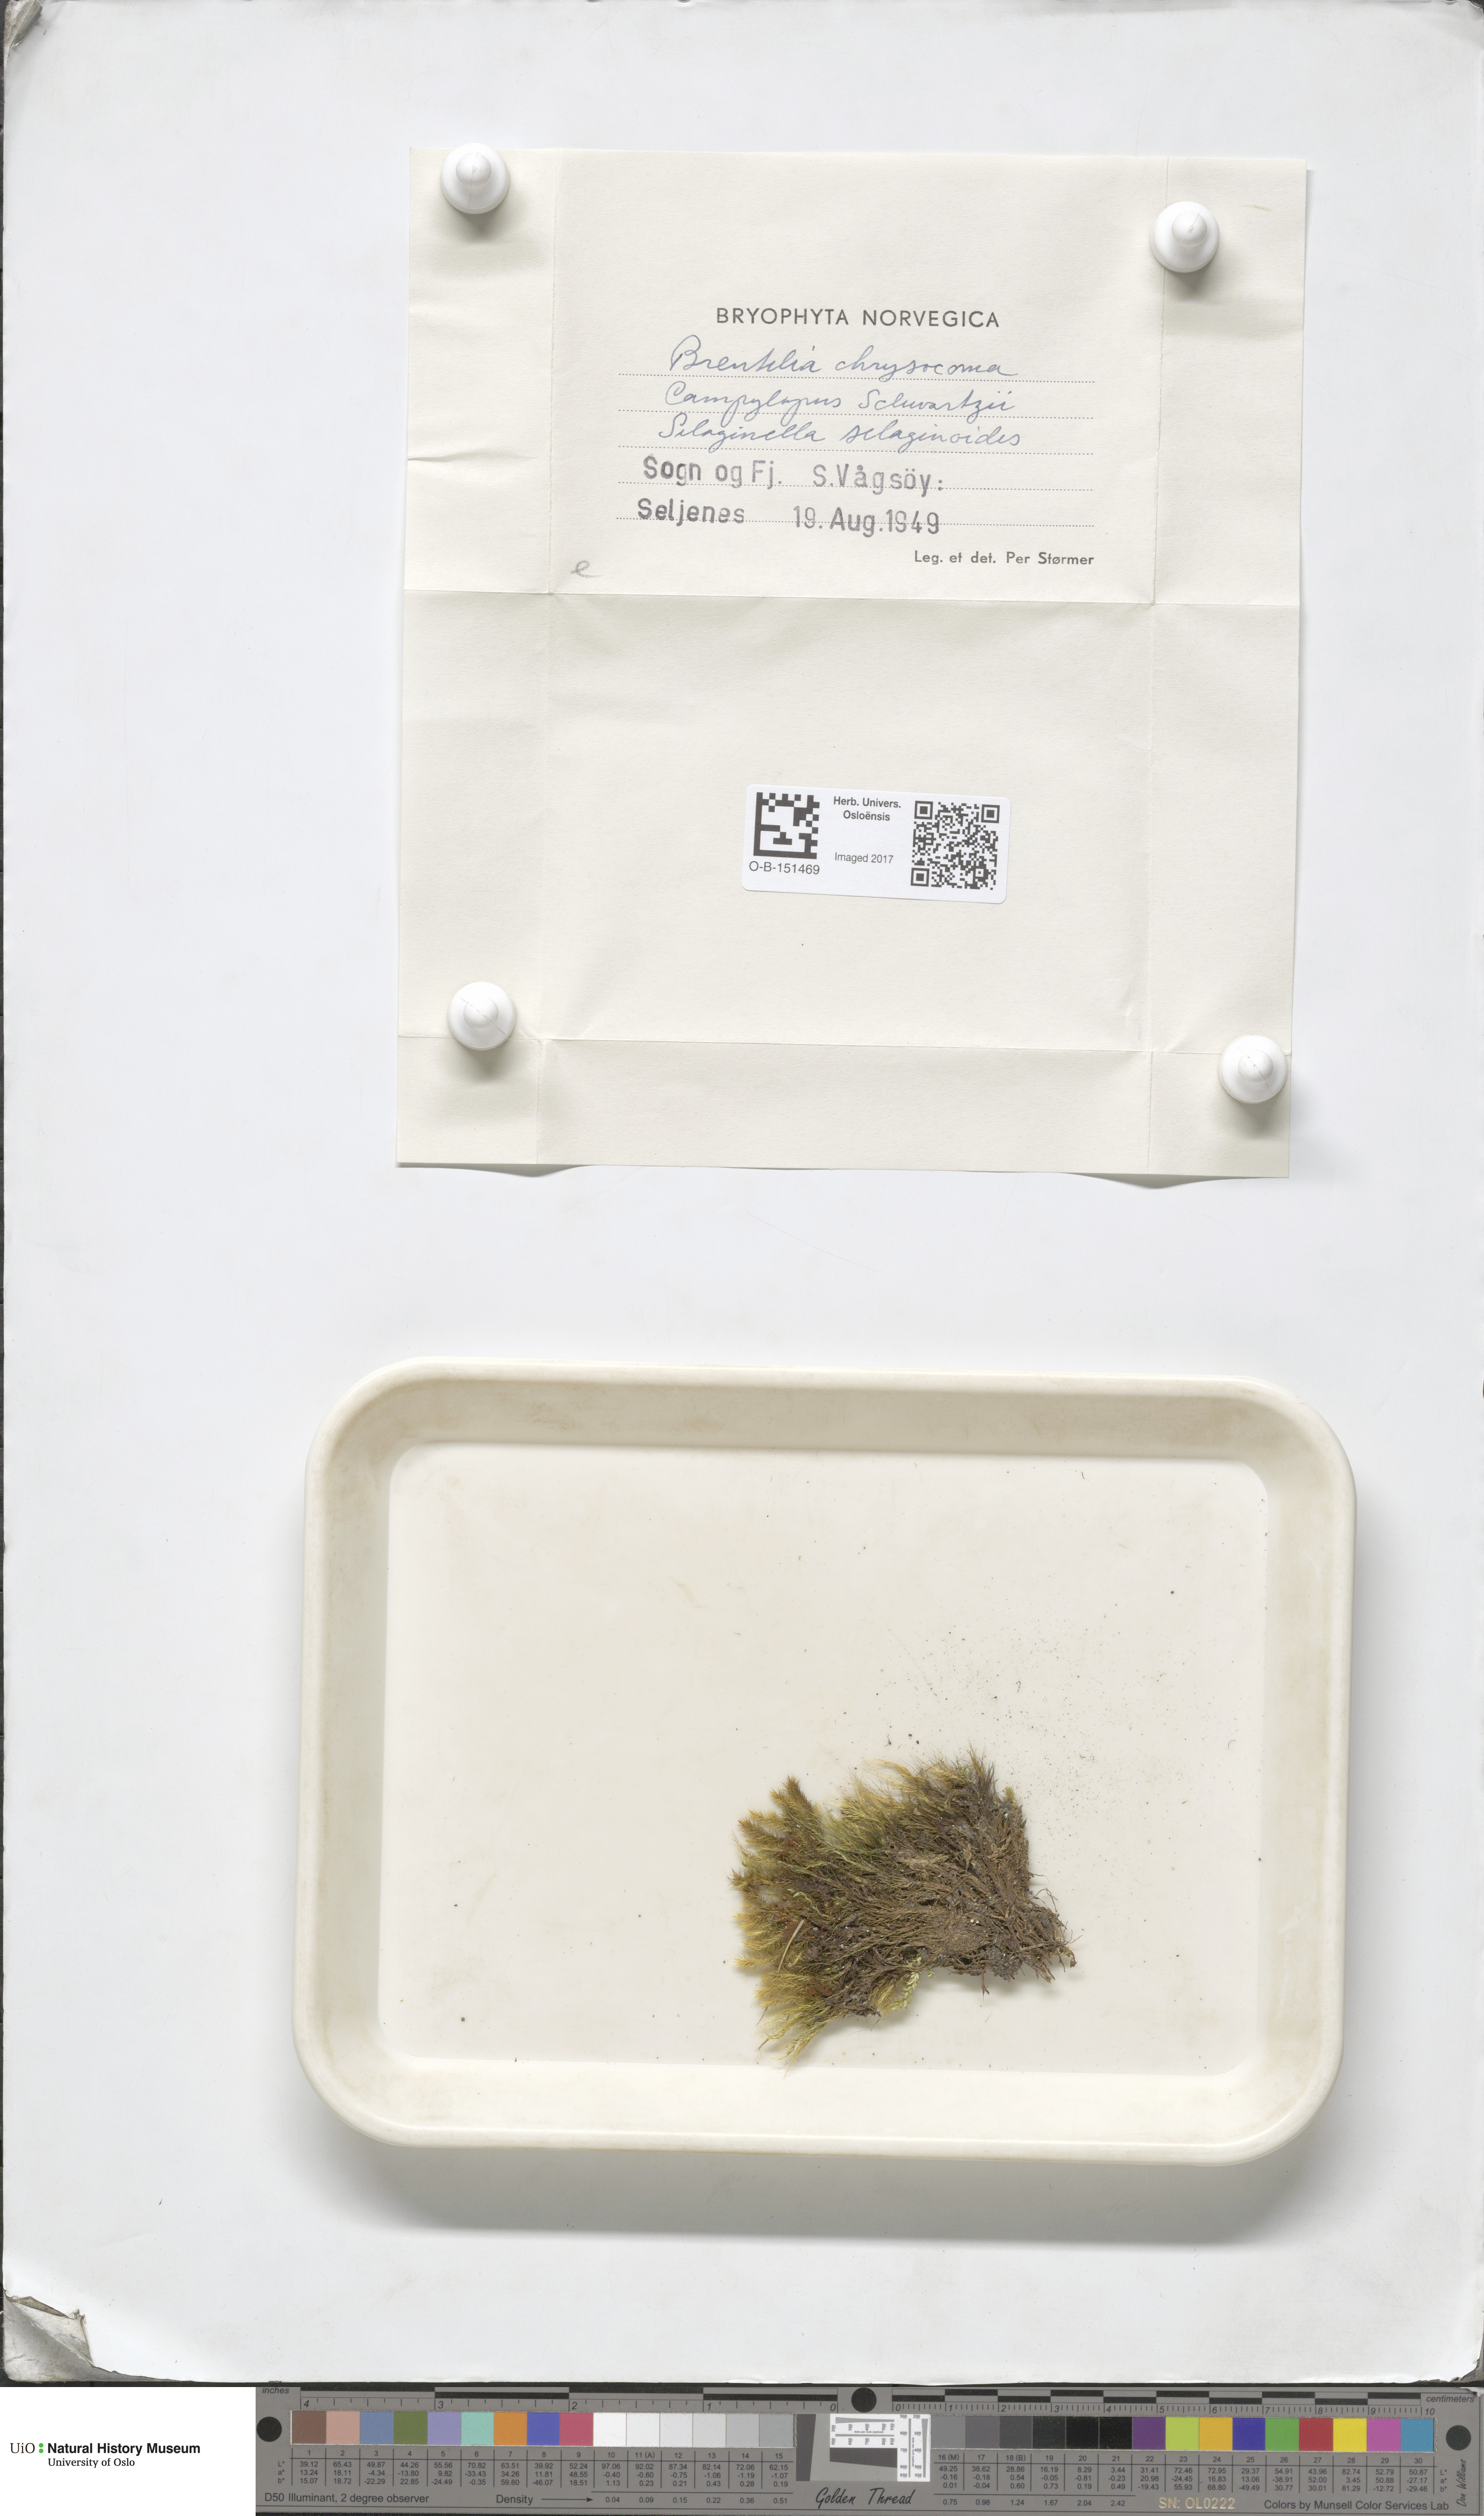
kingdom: Plantae
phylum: Bryophyta
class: Bryopsida
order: Bartramiales
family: Bartramiaceae
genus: Breutelia
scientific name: Breutelia chrysocoma
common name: Bottle-brush moss
